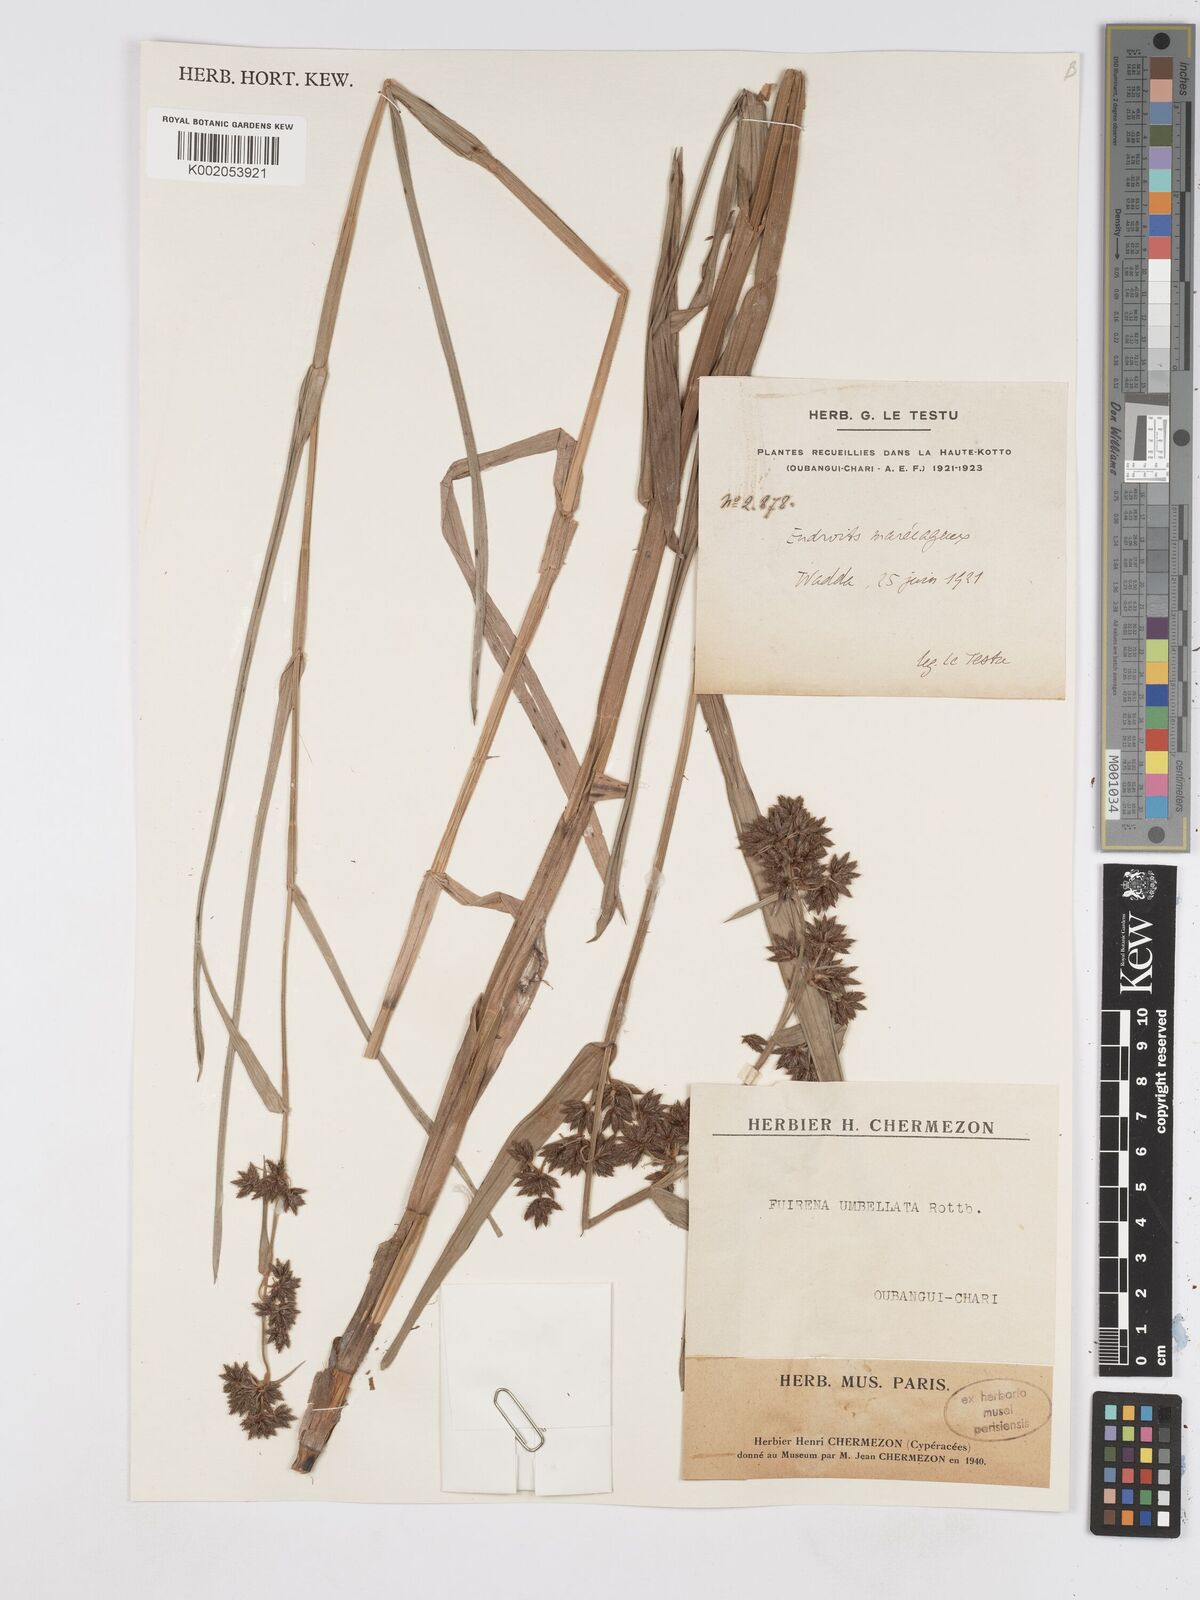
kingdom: Plantae
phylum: Tracheophyta
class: Liliopsida
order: Poales
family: Cyperaceae
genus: Fuirena
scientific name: Fuirena umbellata
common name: Yefen
